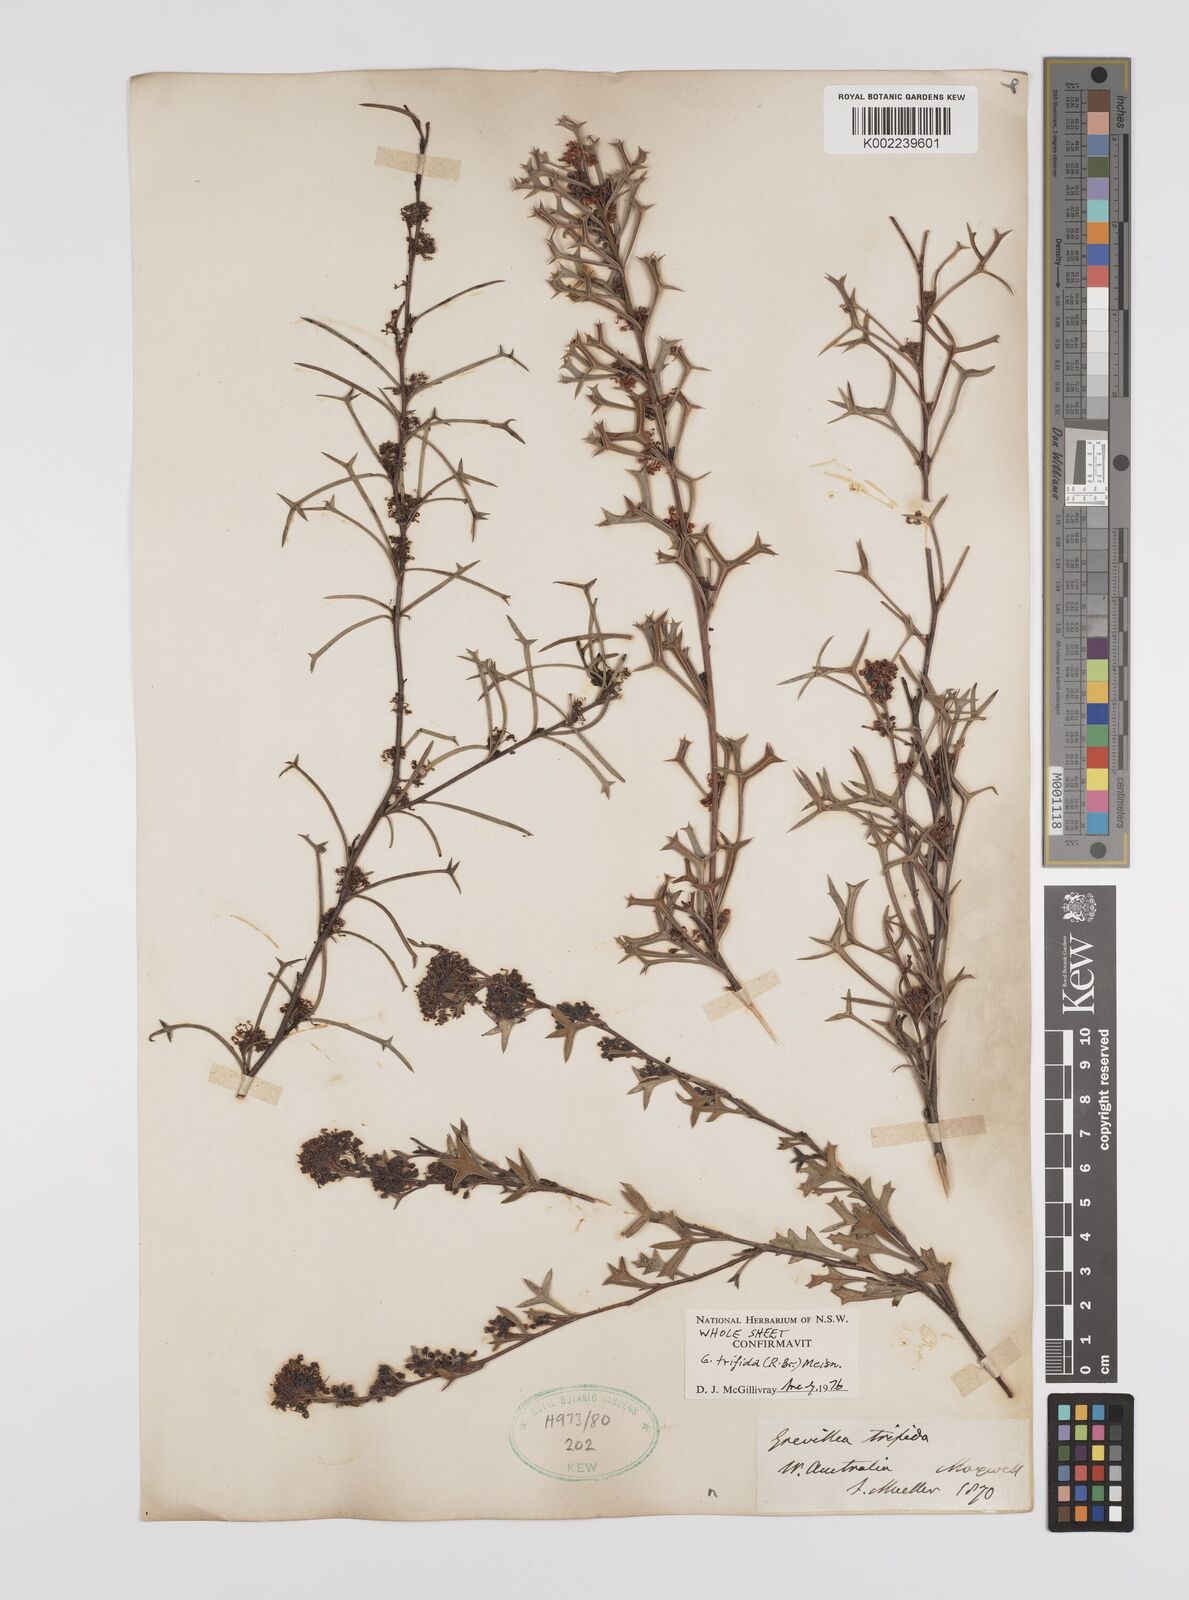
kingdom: Plantae
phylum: Tracheophyta
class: Magnoliopsida
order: Proteales
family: Proteaceae
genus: Grevillea
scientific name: Grevillea trifida
